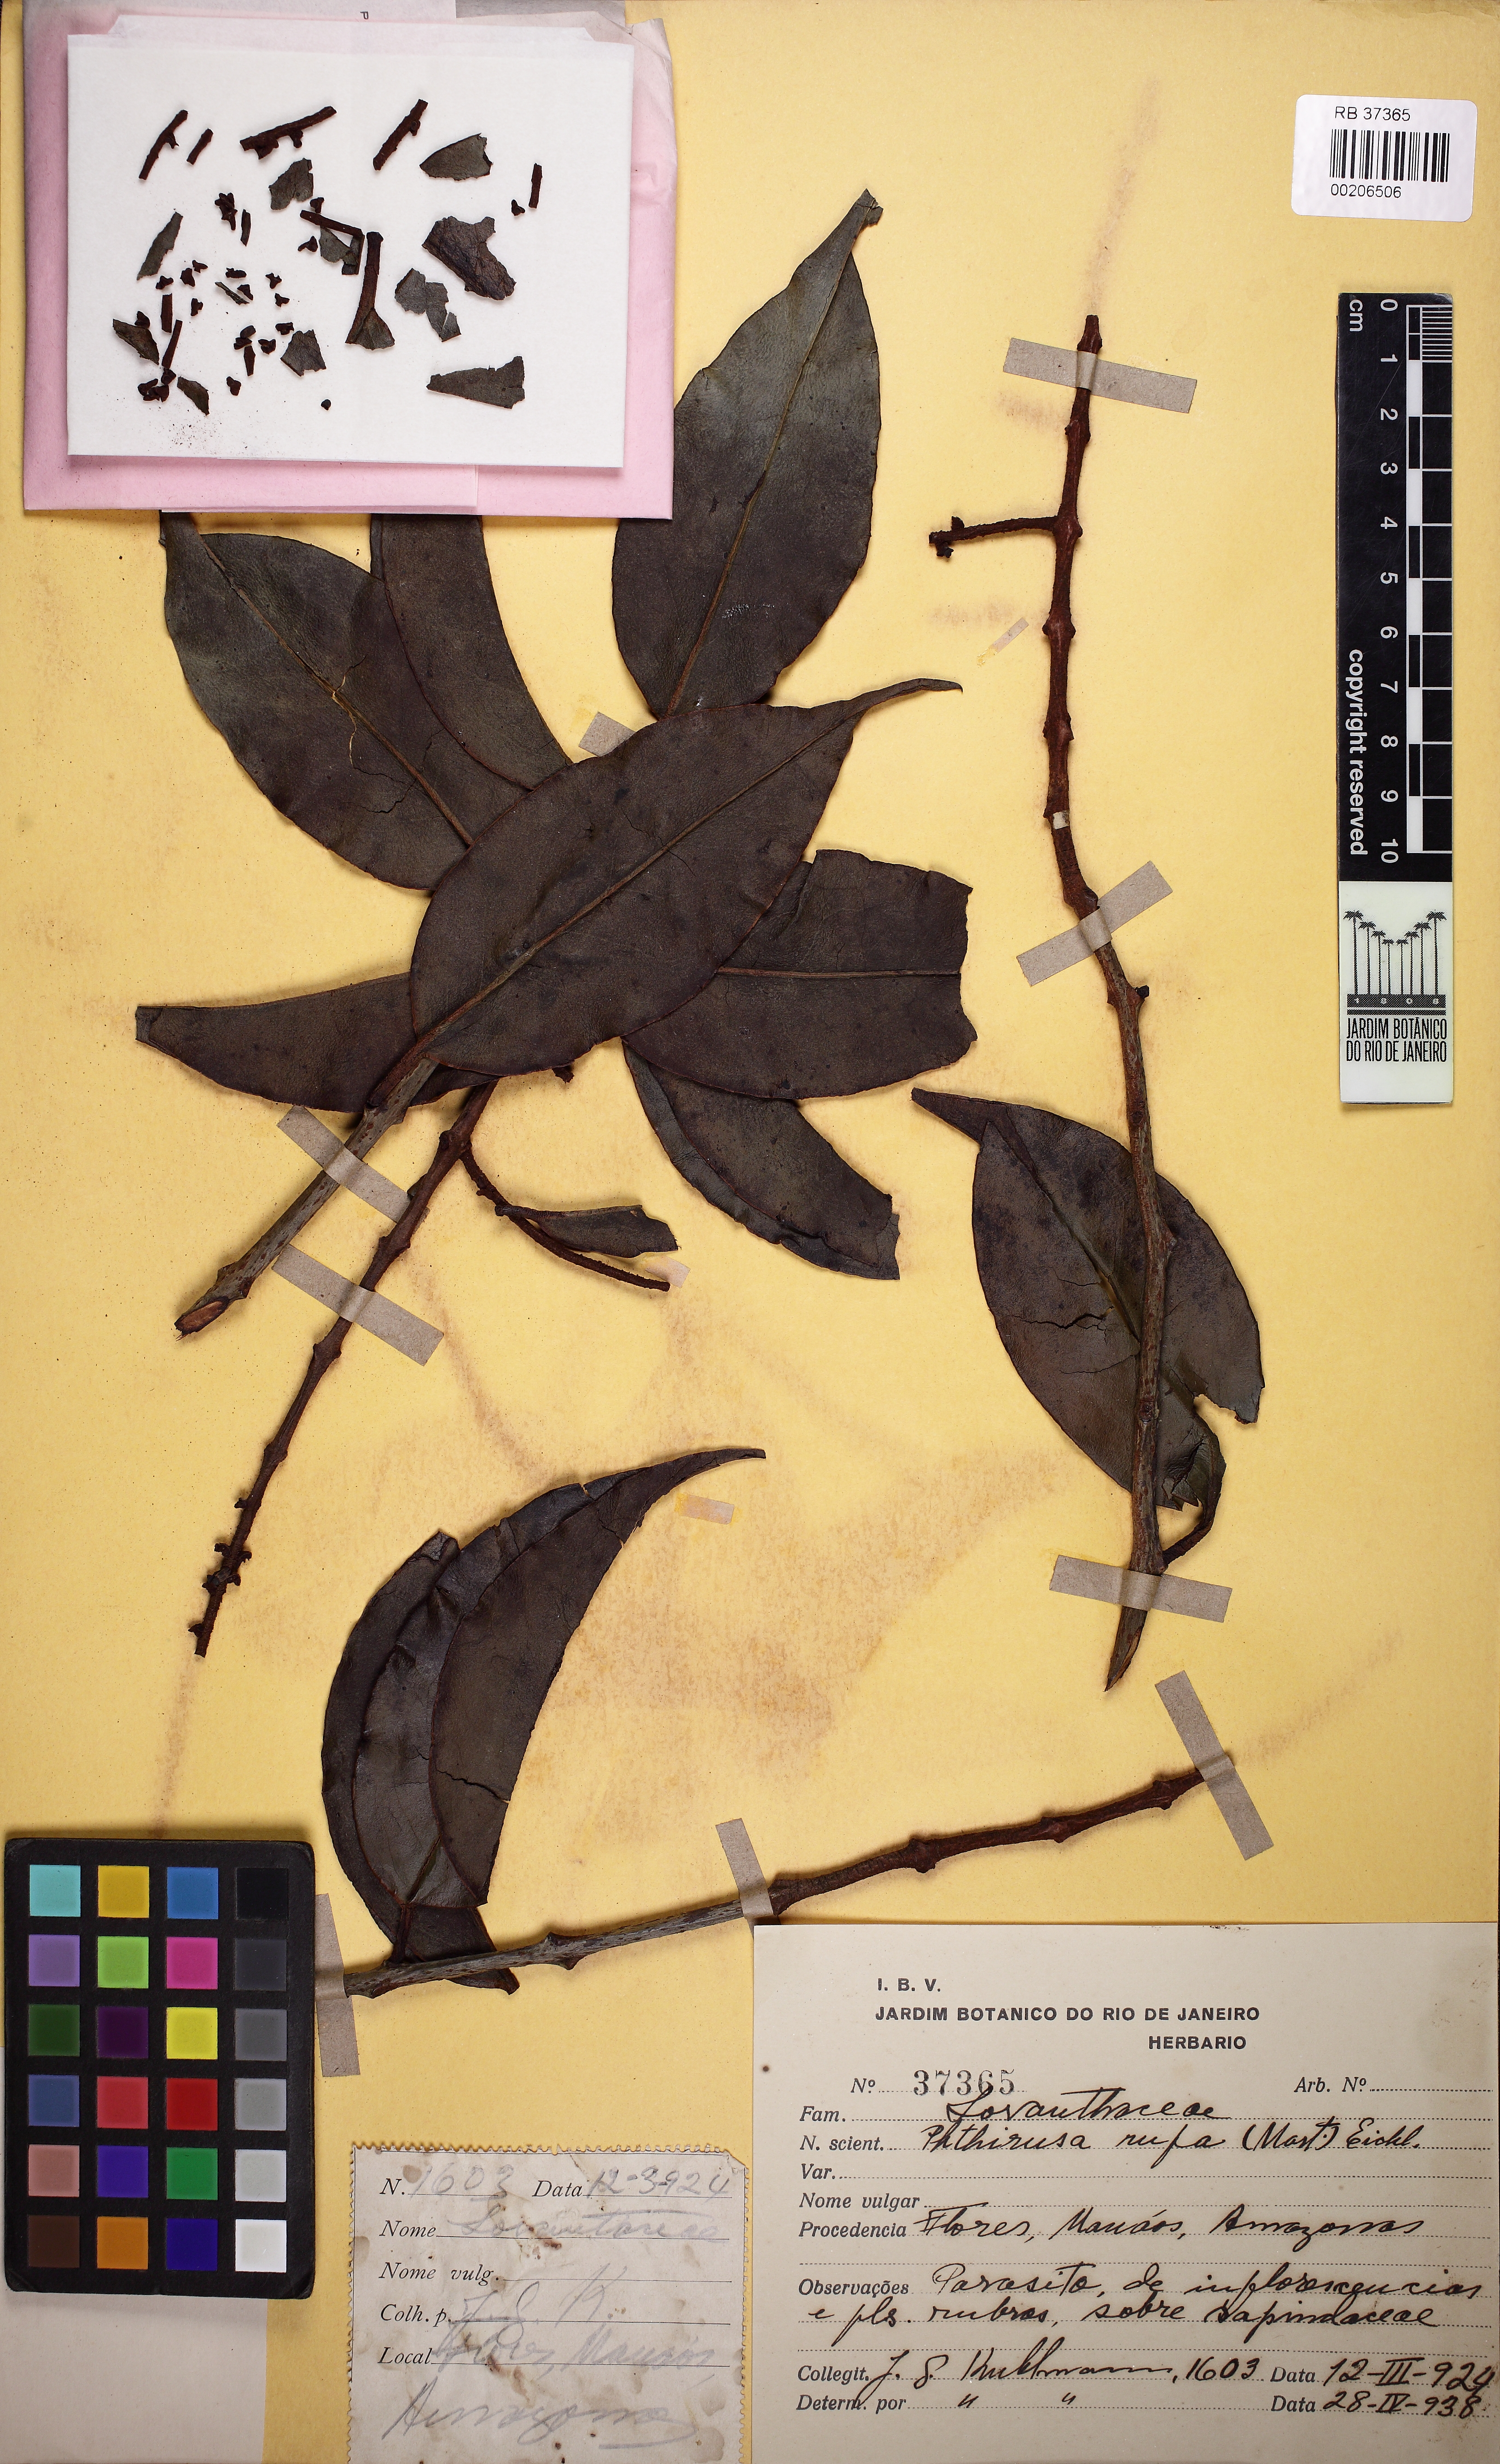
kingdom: Plantae
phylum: Tracheophyta
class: Magnoliopsida
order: Santalales
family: Loranthaceae
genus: Passovia
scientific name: Passovia rufa
